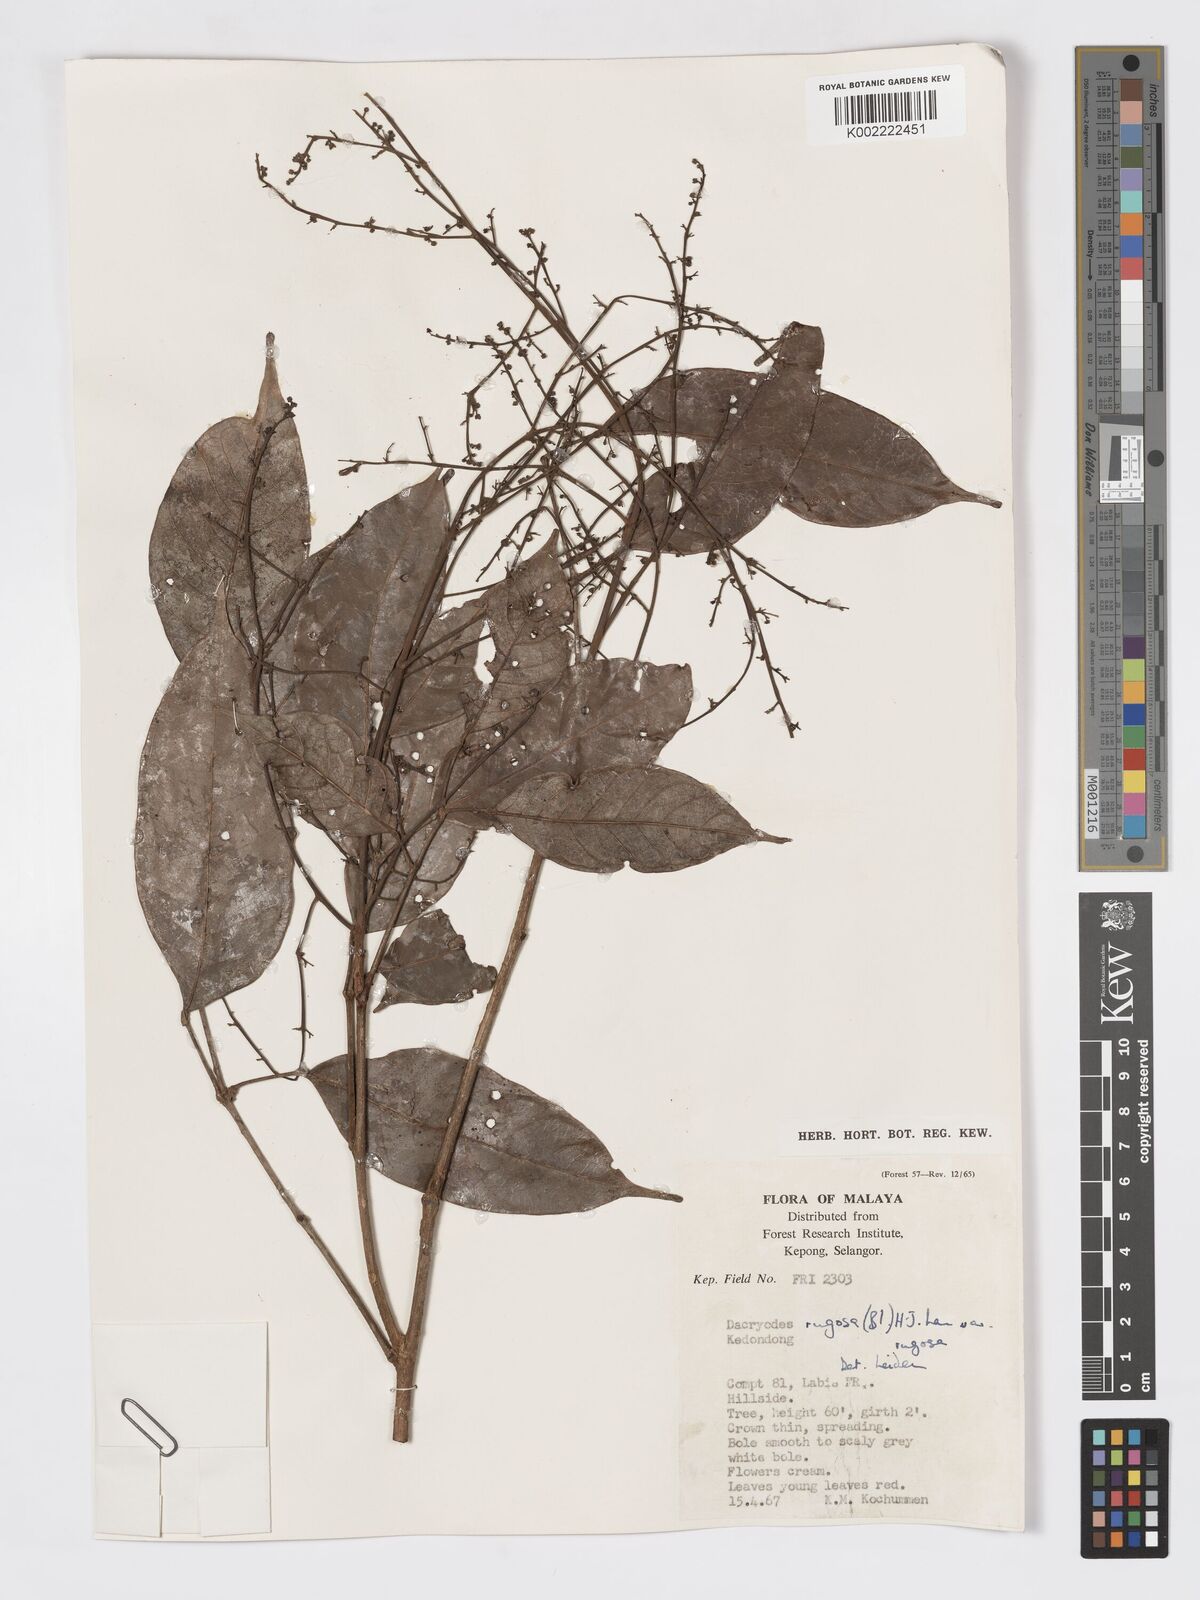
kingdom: Plantae
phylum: Tracheophyta
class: Magnoliopsida
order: Sapindales
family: Burseraceae
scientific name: Burseraceae
